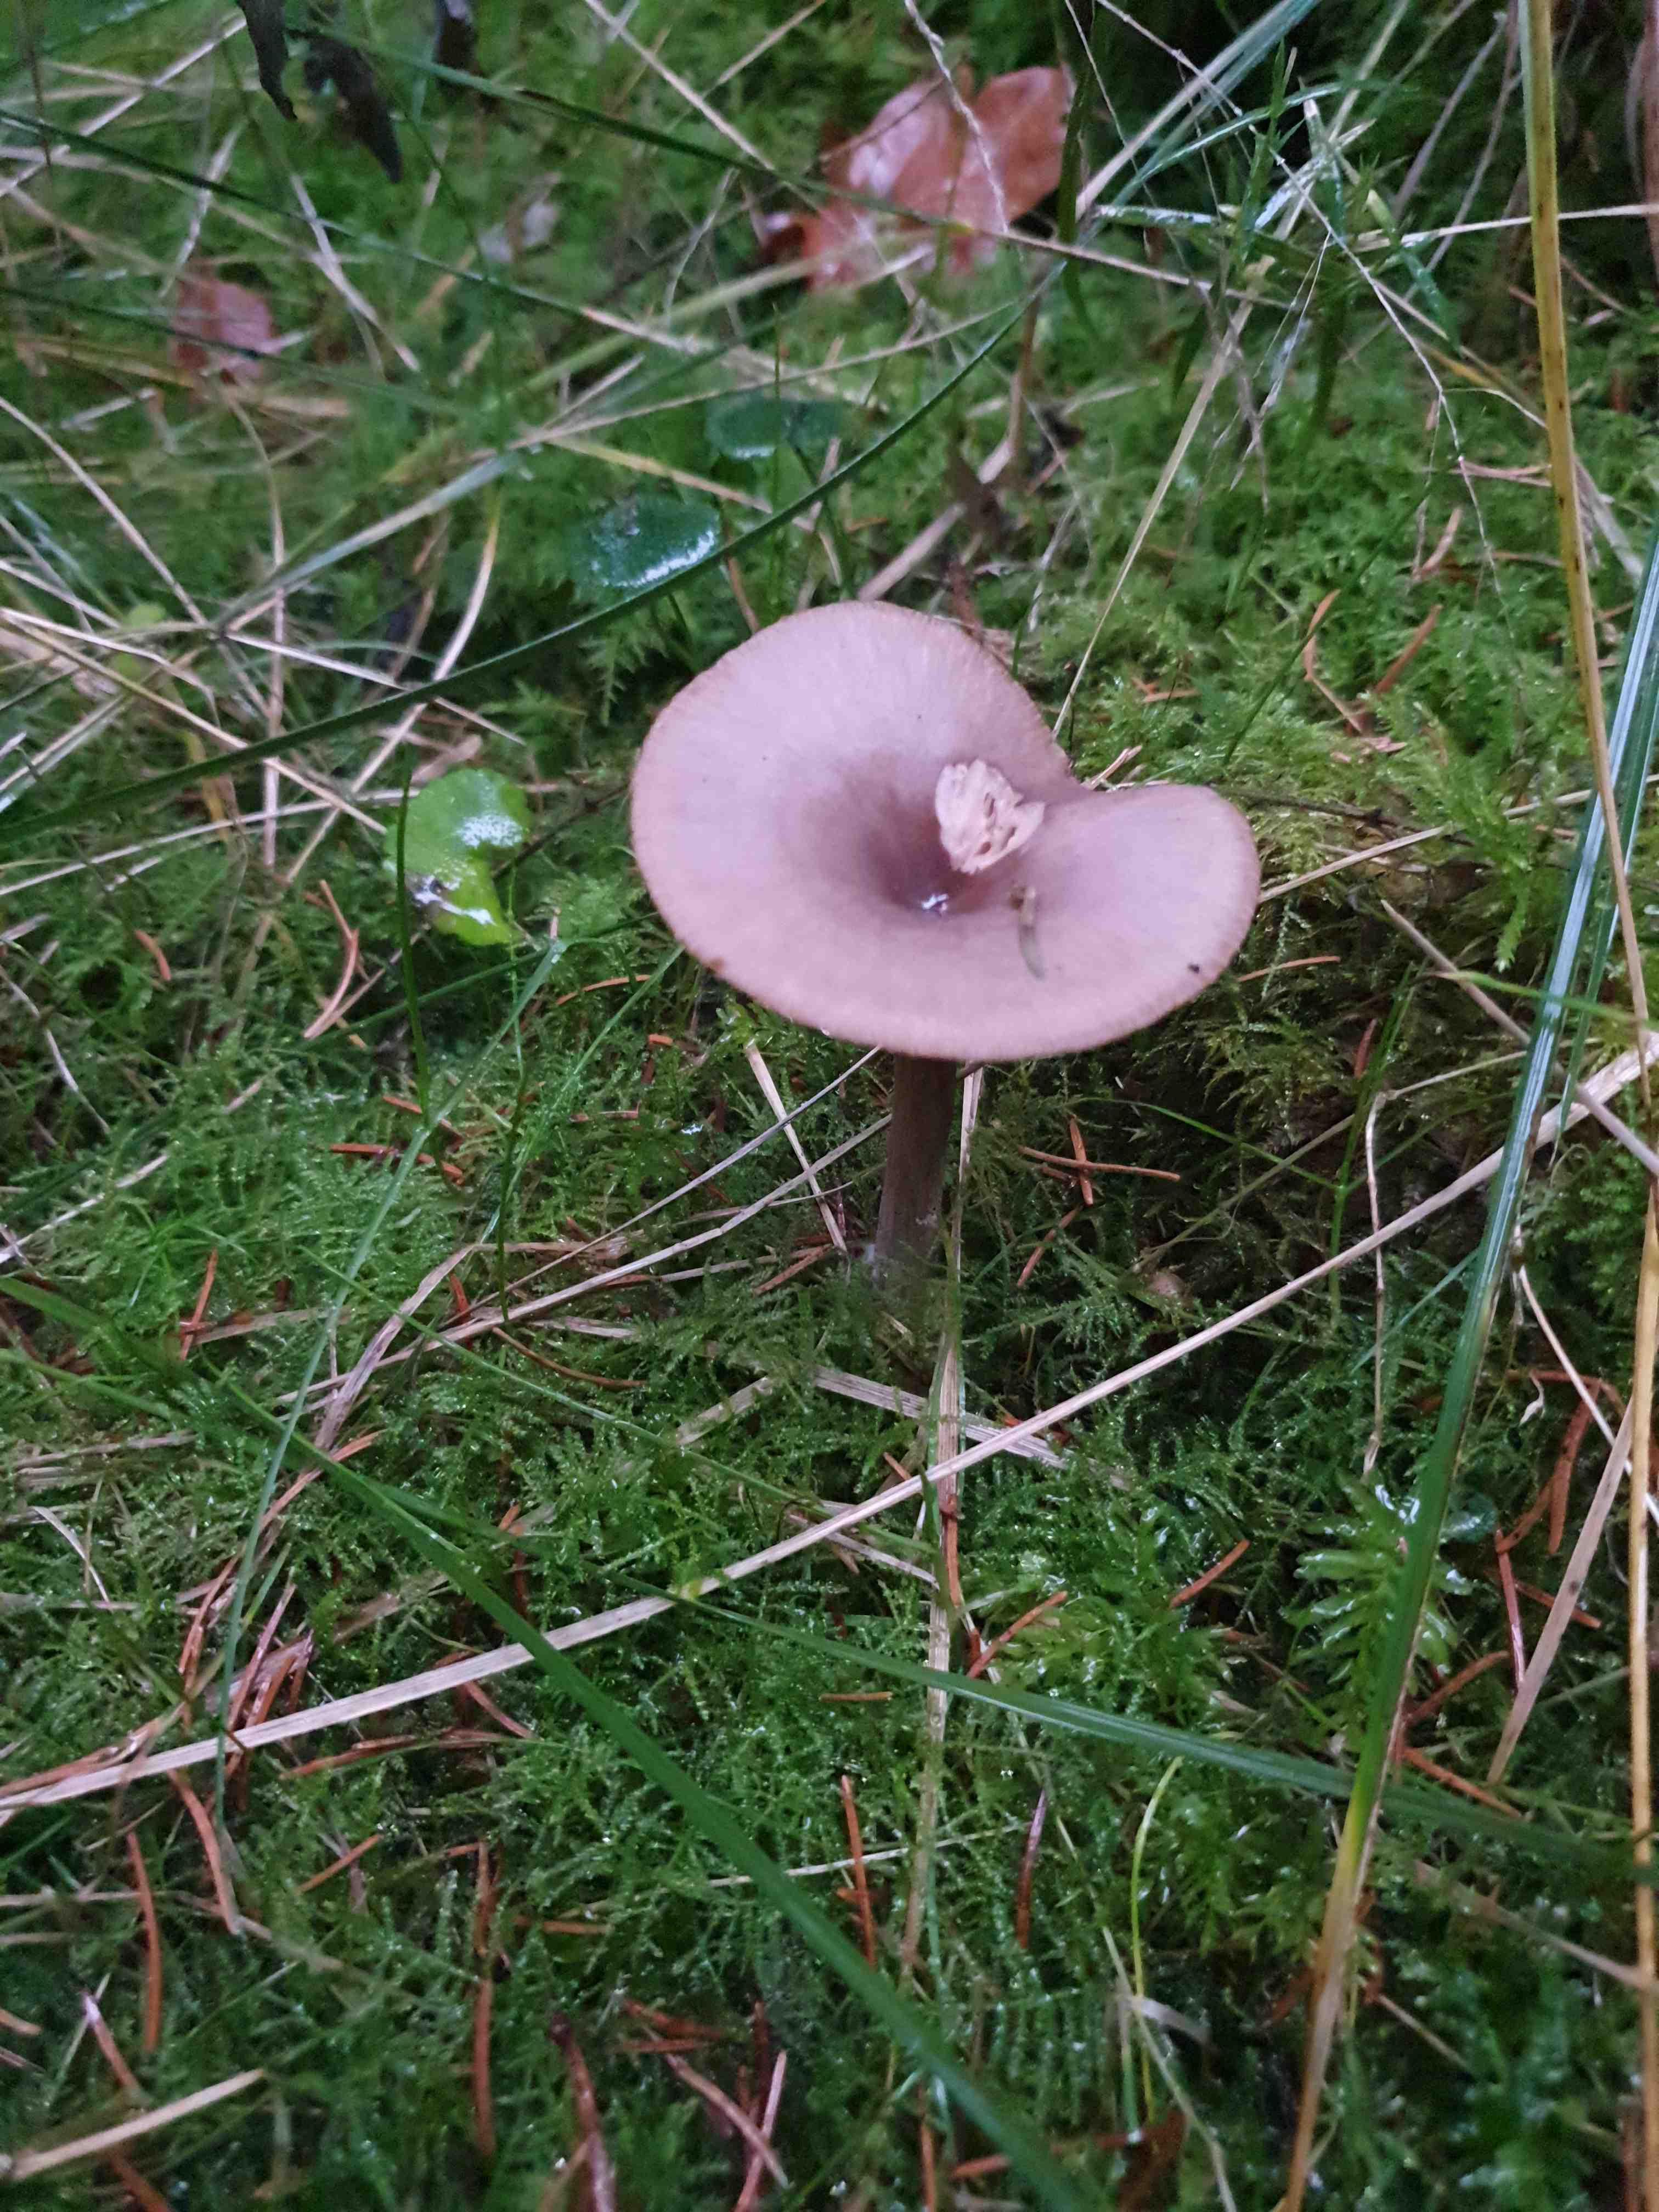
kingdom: Fungi
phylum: Basidiomycota
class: Agaricomycetes
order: Agaricales
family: Pseudoclitocybaceae
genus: Pseudoclitocybe
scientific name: Pseudoclitocybe cyathiformis
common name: almindelig bægertragthat
